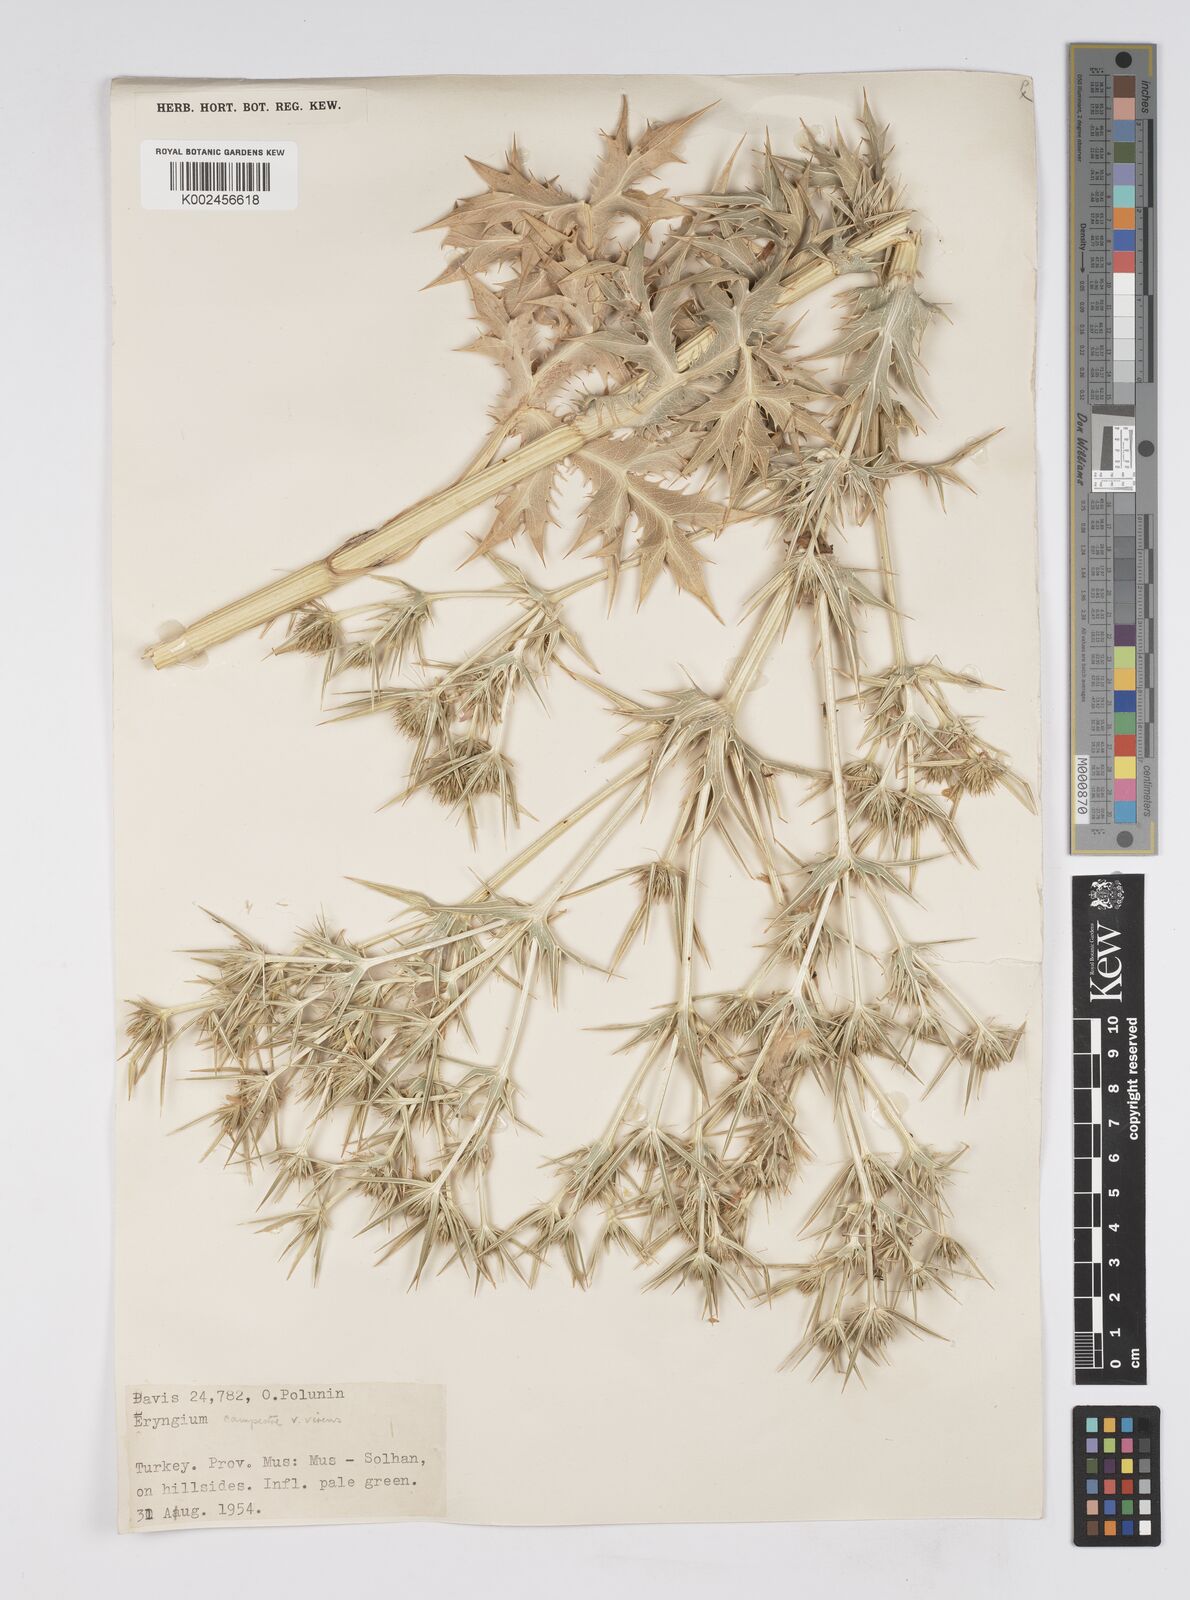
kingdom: Plantae
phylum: Tracheophyta
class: Magnoliopsida
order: Apiales
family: Apiaceae
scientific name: Apiaceae
